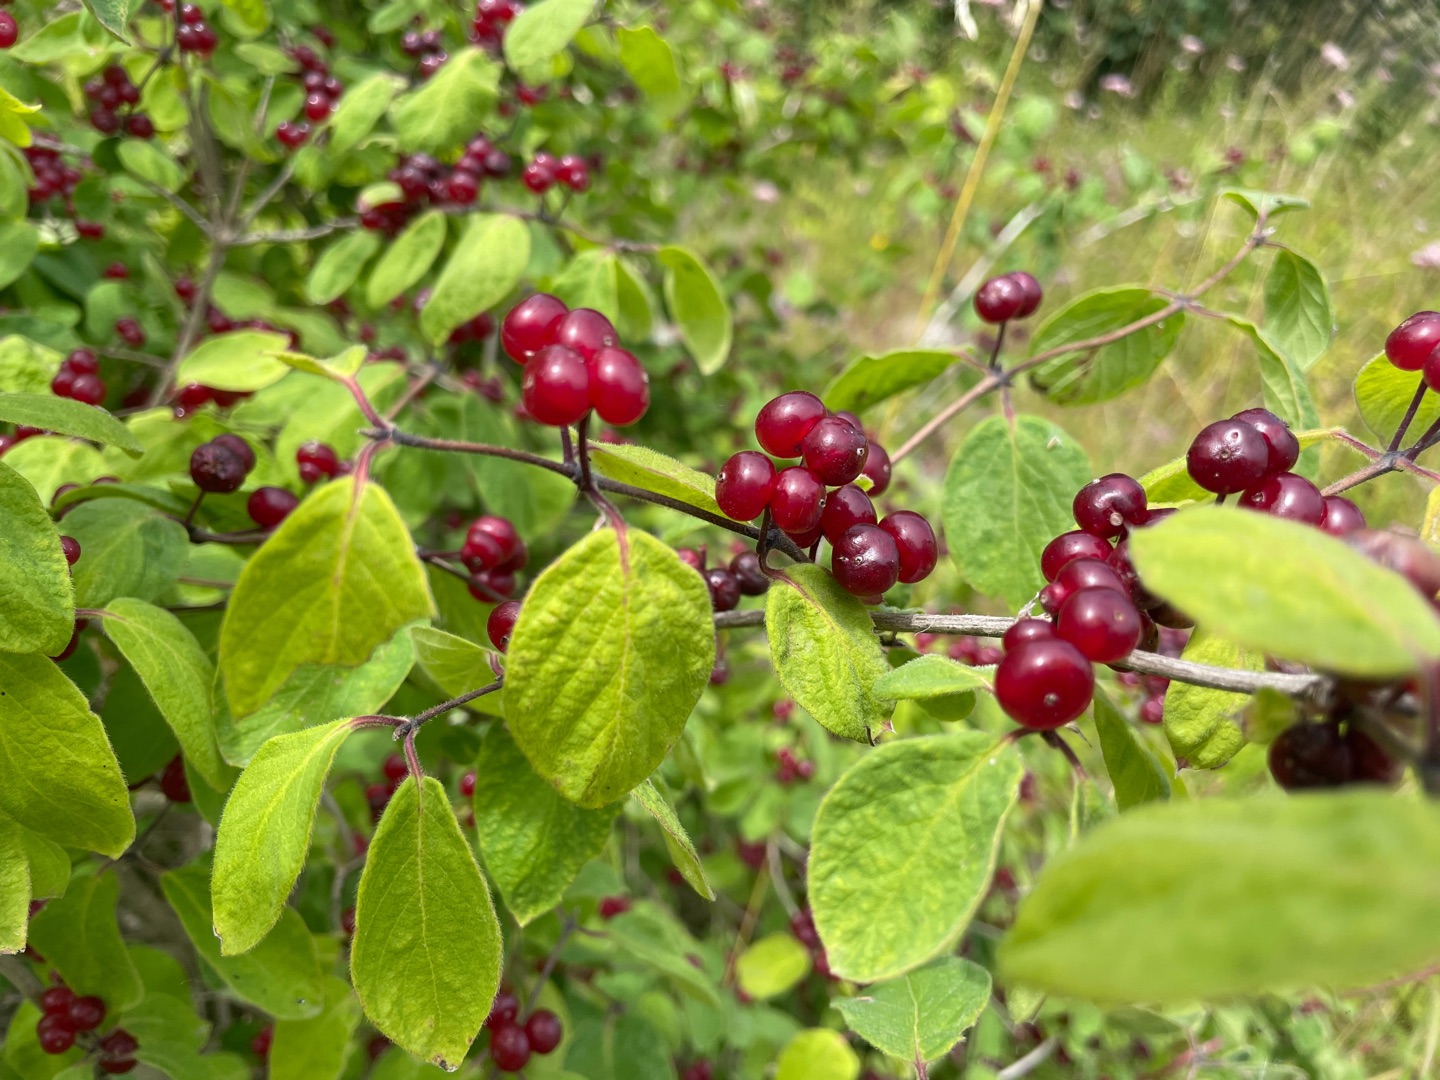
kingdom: Plantae
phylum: Tracheophyta
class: Magnoliopsida
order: Dipsacales
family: Caprifoliaceae
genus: Lonicera
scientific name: Lonicera xylosteum
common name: Dunet gedeblad
